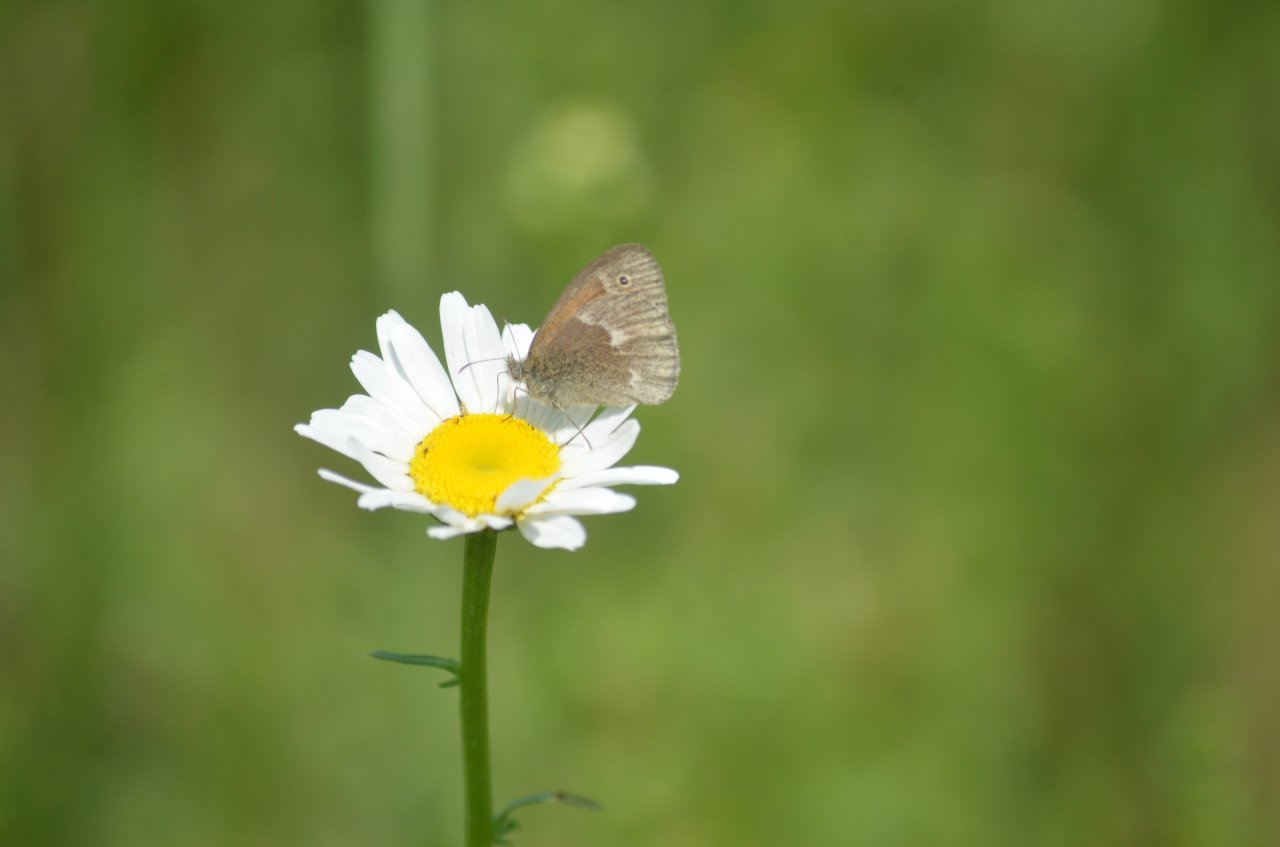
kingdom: Animalia
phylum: Arthropoda
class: Insecta
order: Lepidoptera
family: Nymphalidae
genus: Coenonympha
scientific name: Coenonympha tullia
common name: Large Heath
